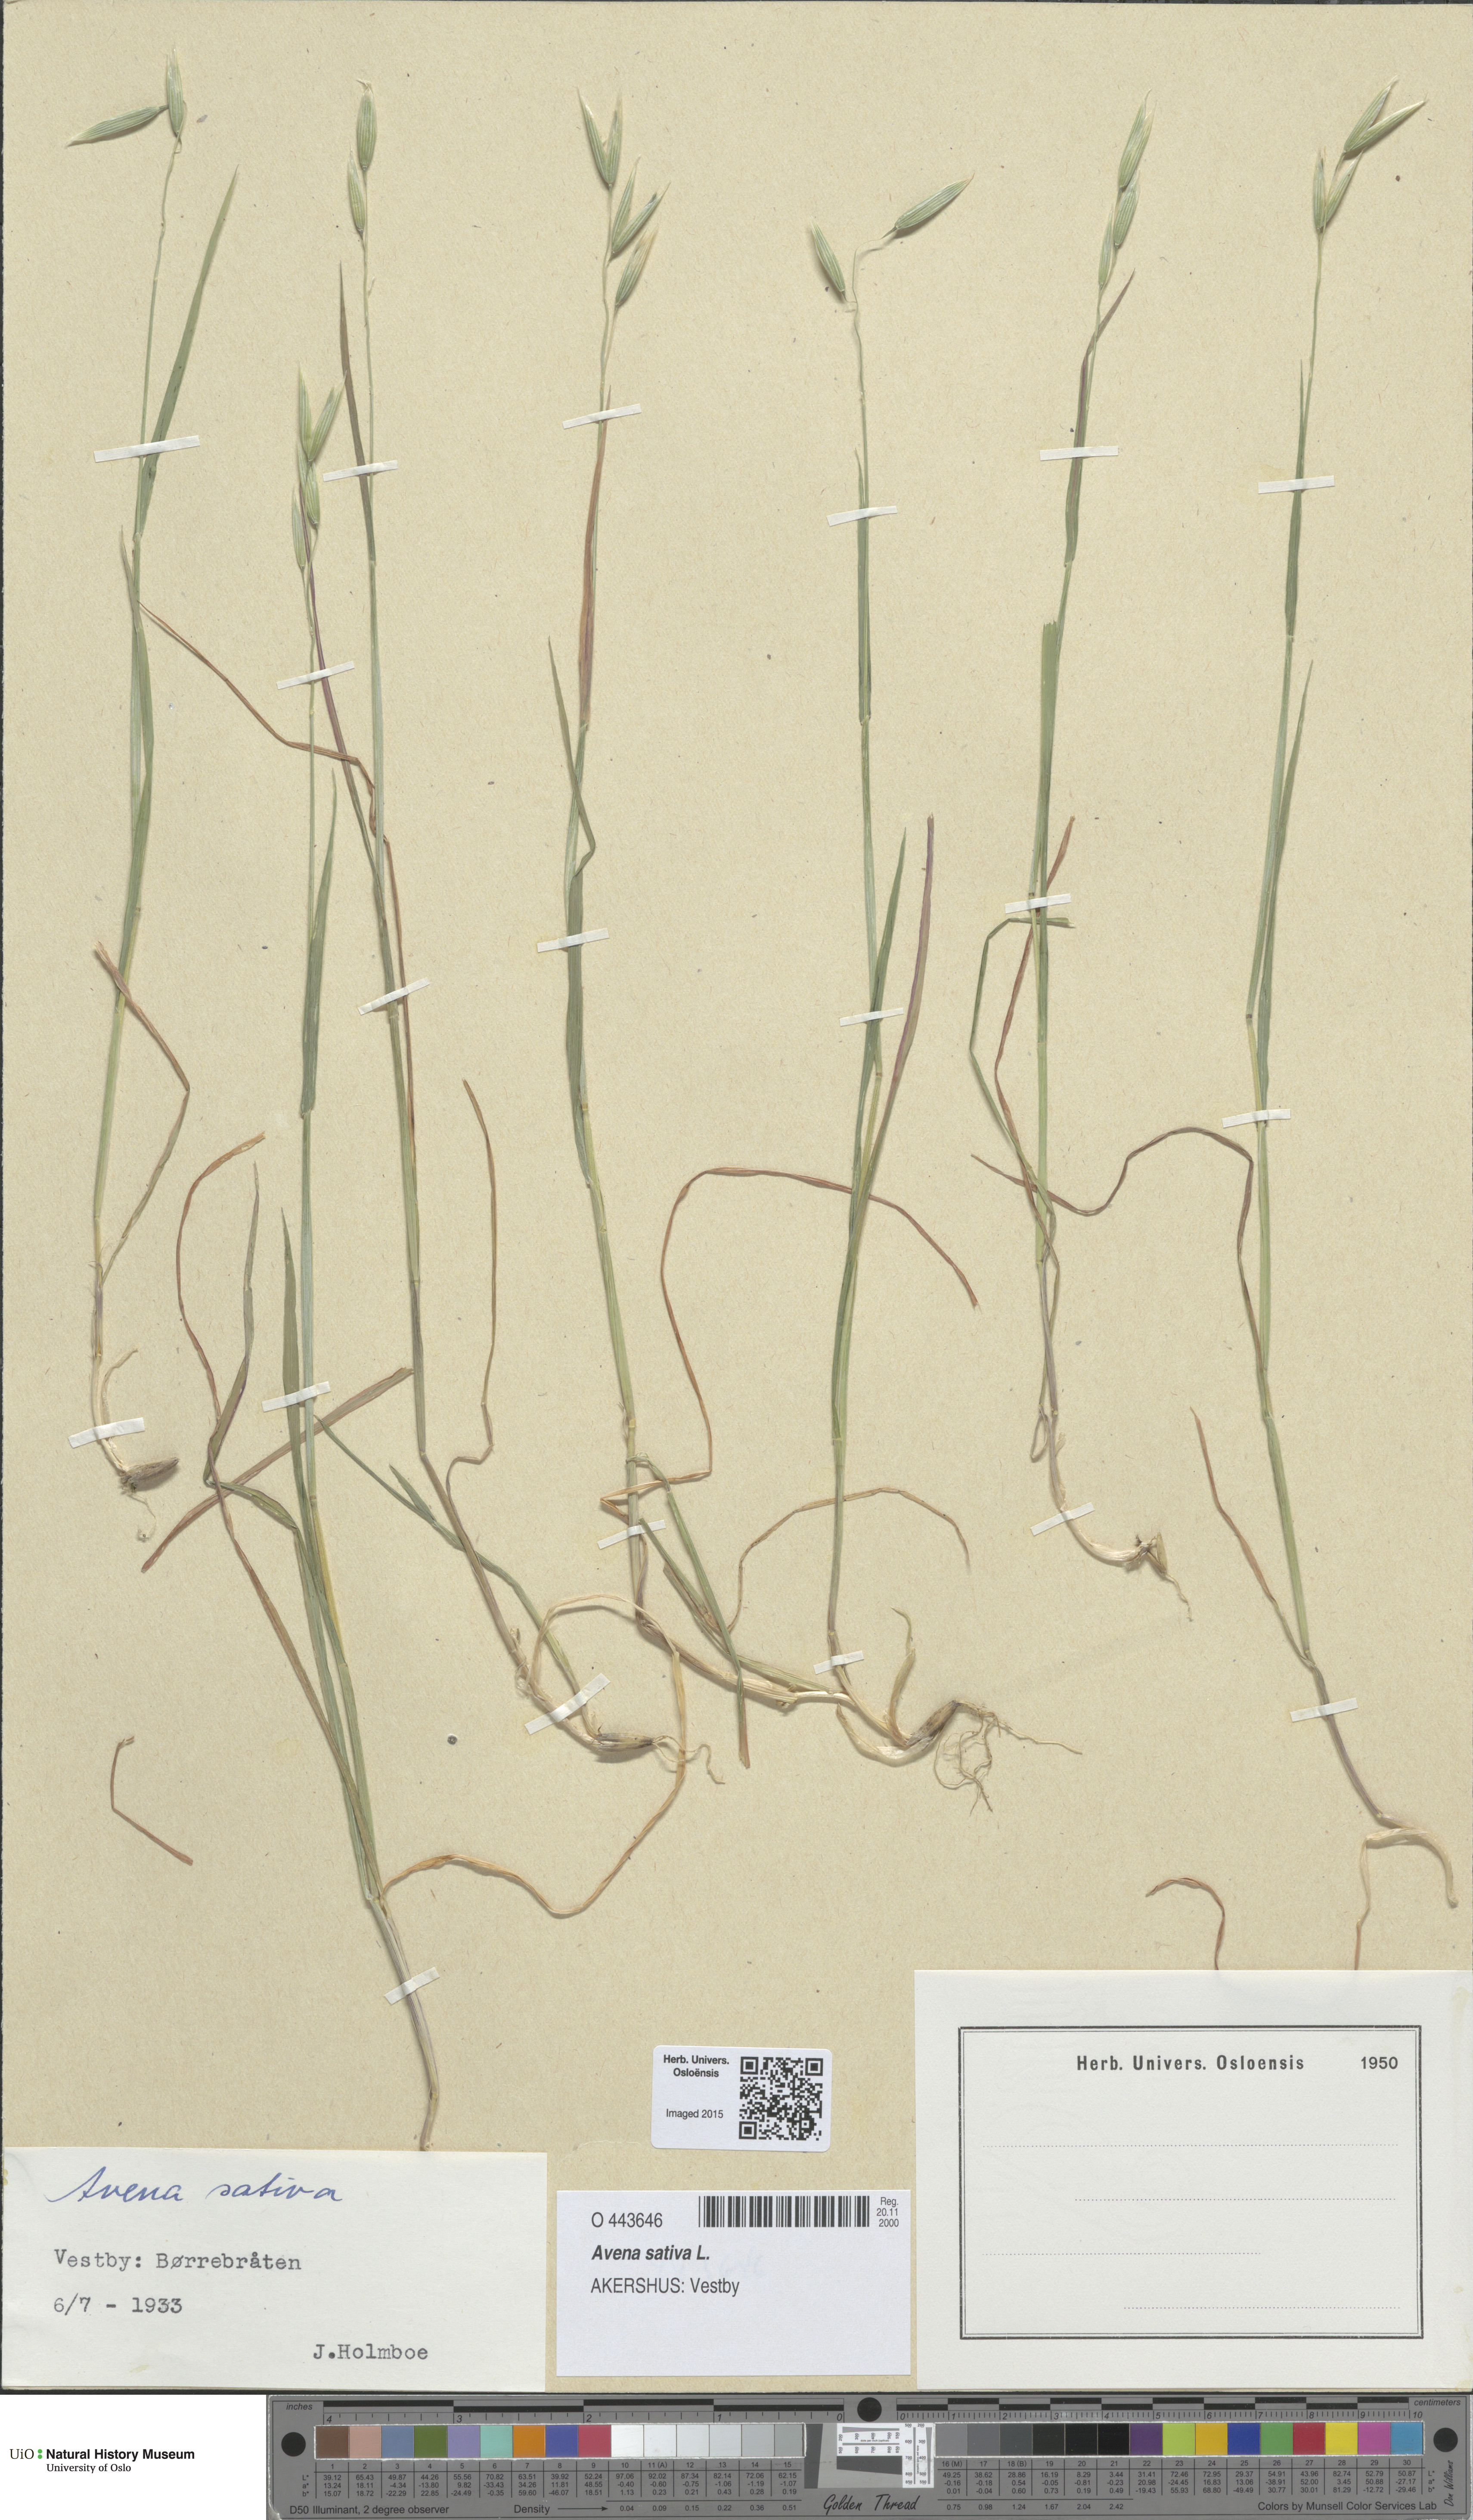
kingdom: Plantae
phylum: Tracheophyta
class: Liliopsida
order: Poales
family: Poaceae
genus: Avena
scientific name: Avena sativa
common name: Oat
